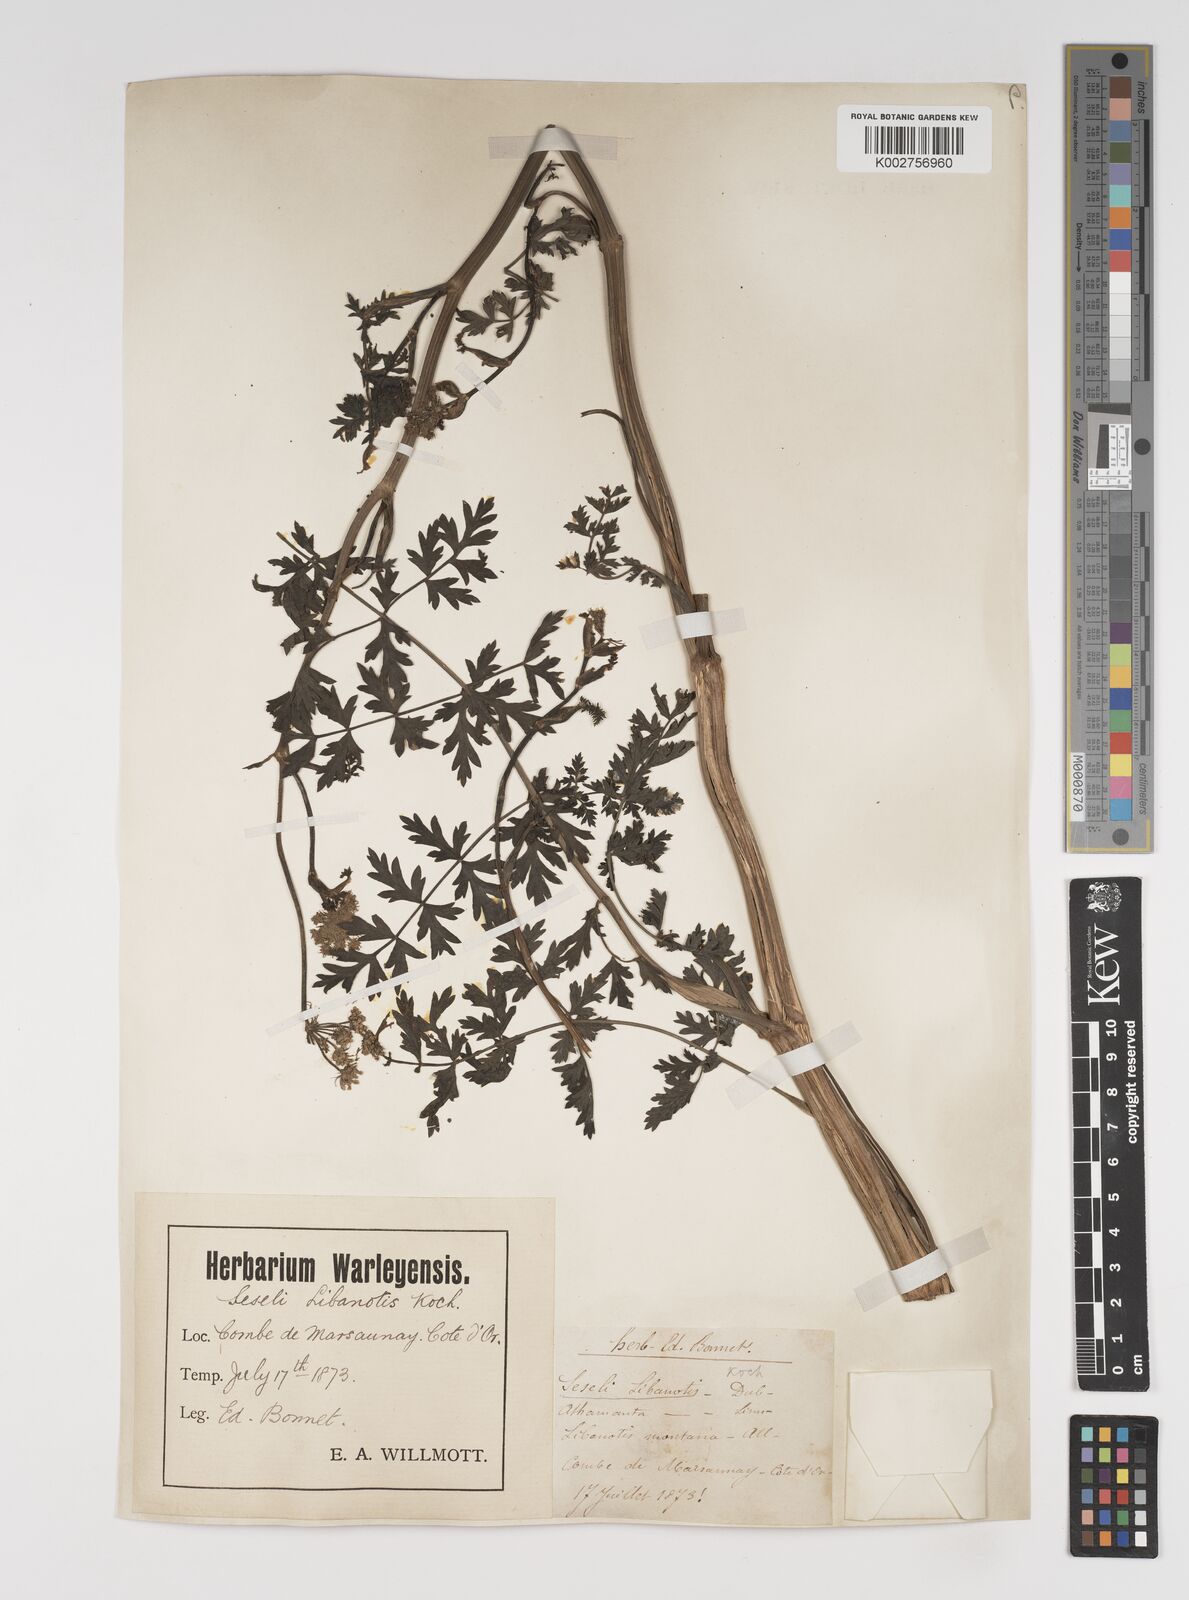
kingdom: Plantae
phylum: Tracheophyta
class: Magnoliopsida
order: Apiales
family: Apiaceae
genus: Seseli
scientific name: Seseli libanotis
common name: Mooncarrot
